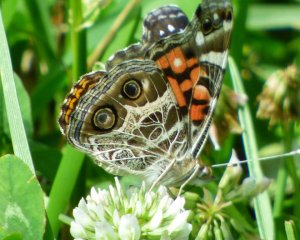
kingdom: Animalia
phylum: Arthropoda
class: Insecta
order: Lepidoptera
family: Nymphalidae
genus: Vanessa
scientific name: Vanessa virginiensis
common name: American Lady
